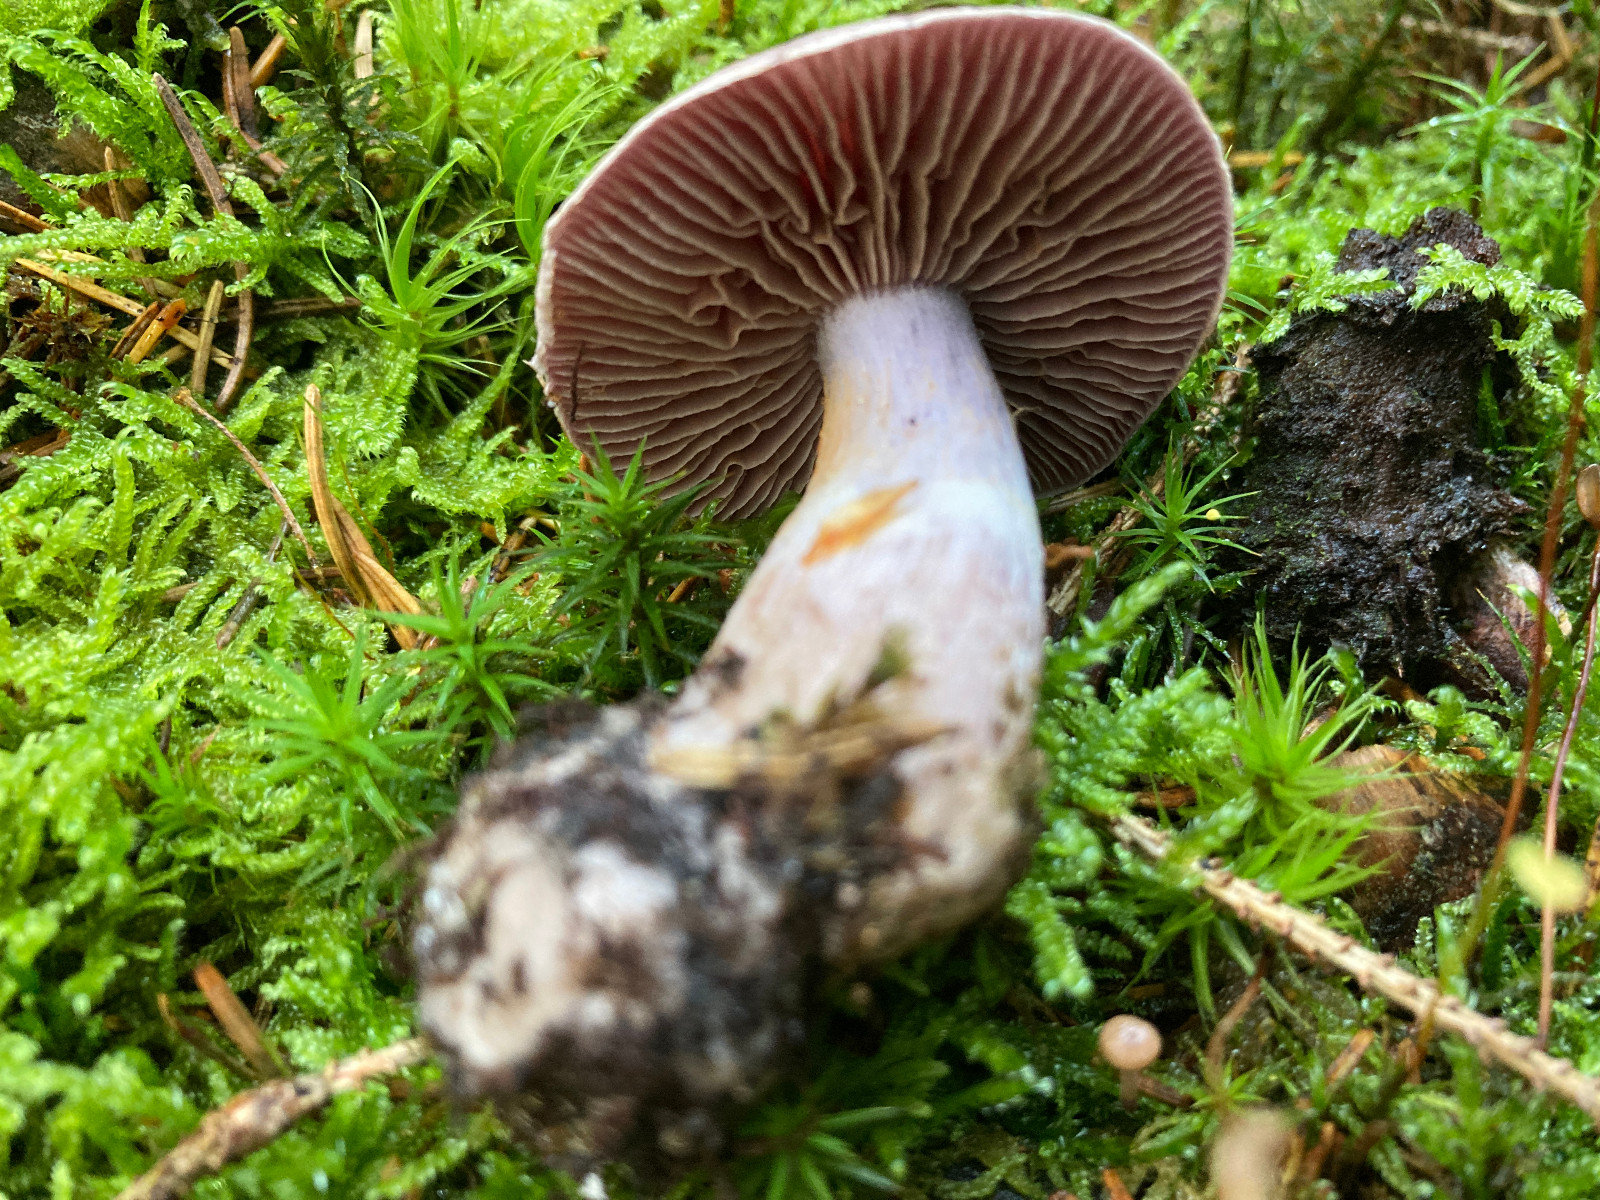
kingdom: Fungi
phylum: Basidiomycota
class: Agaricomycetes
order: Agaricales
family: Cortinariaceae
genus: Cortinarius
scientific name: Cortinarius
